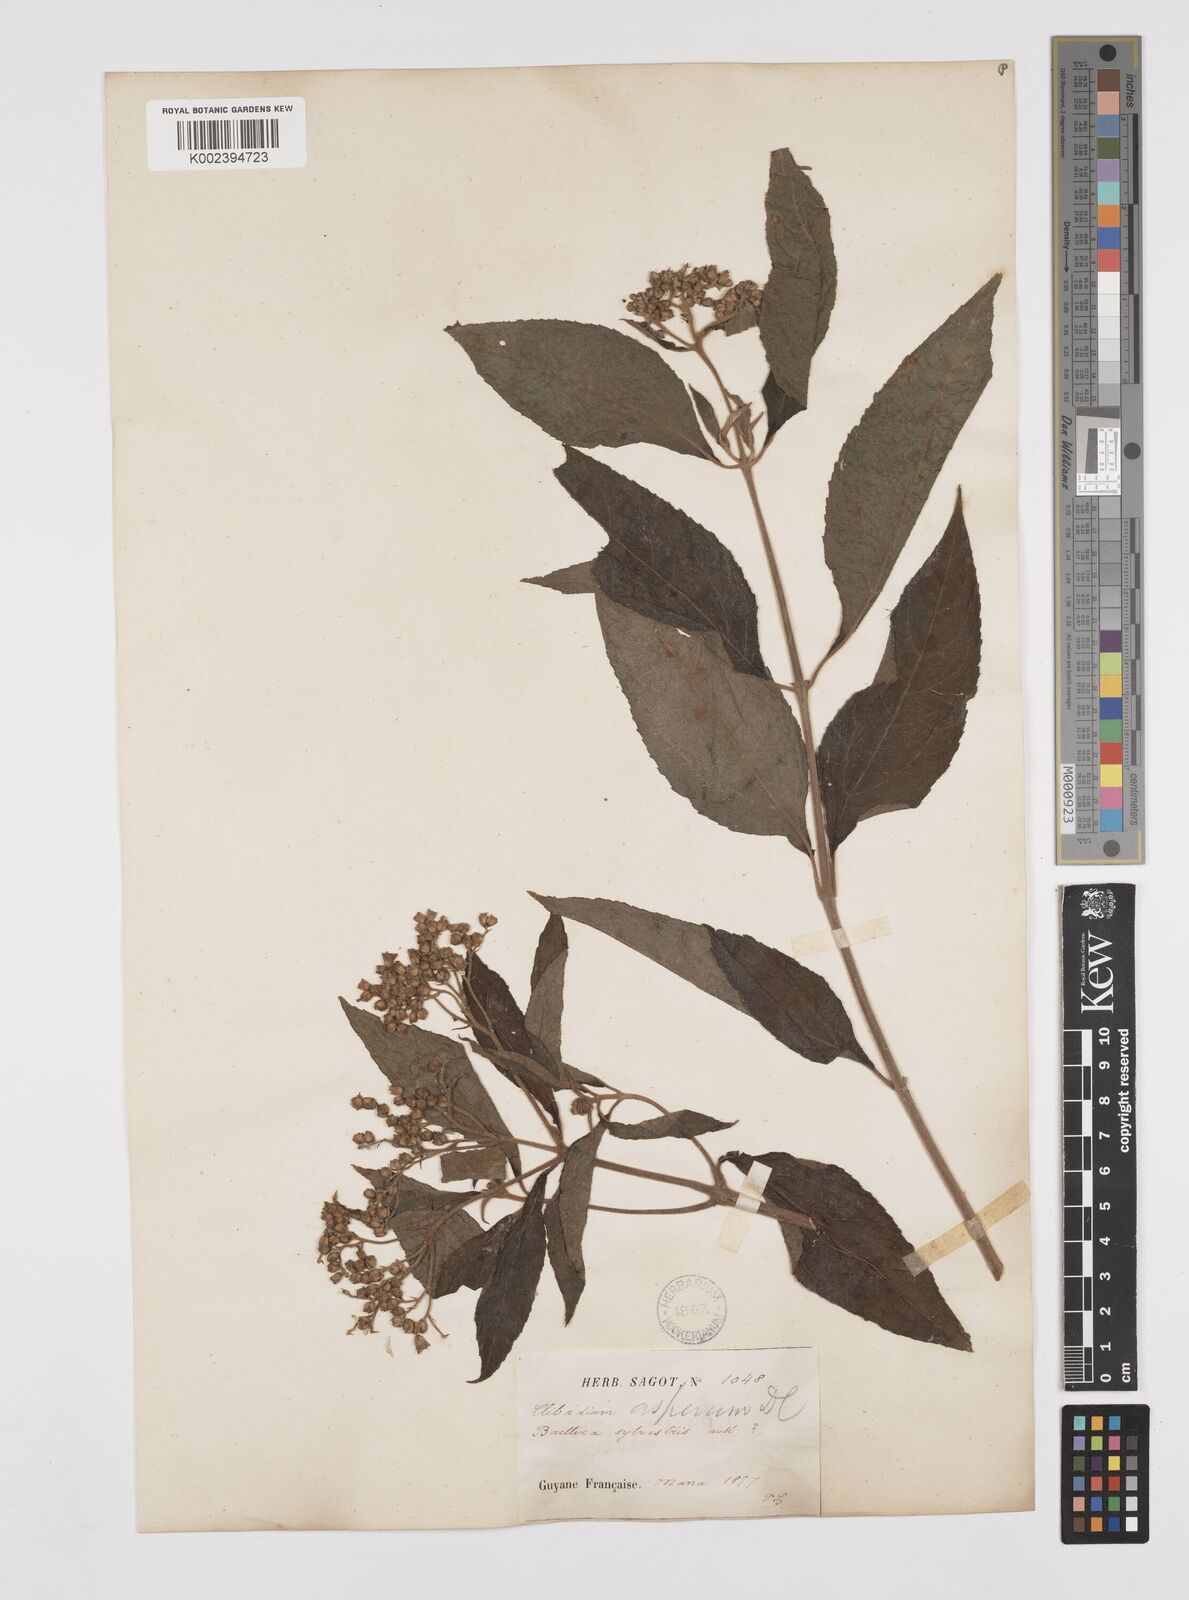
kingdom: Plantae
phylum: Tracheophyta
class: Magnoliopsida
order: Asterales
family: Asteraceae
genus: Clibadium
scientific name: Clibadium surinamense
